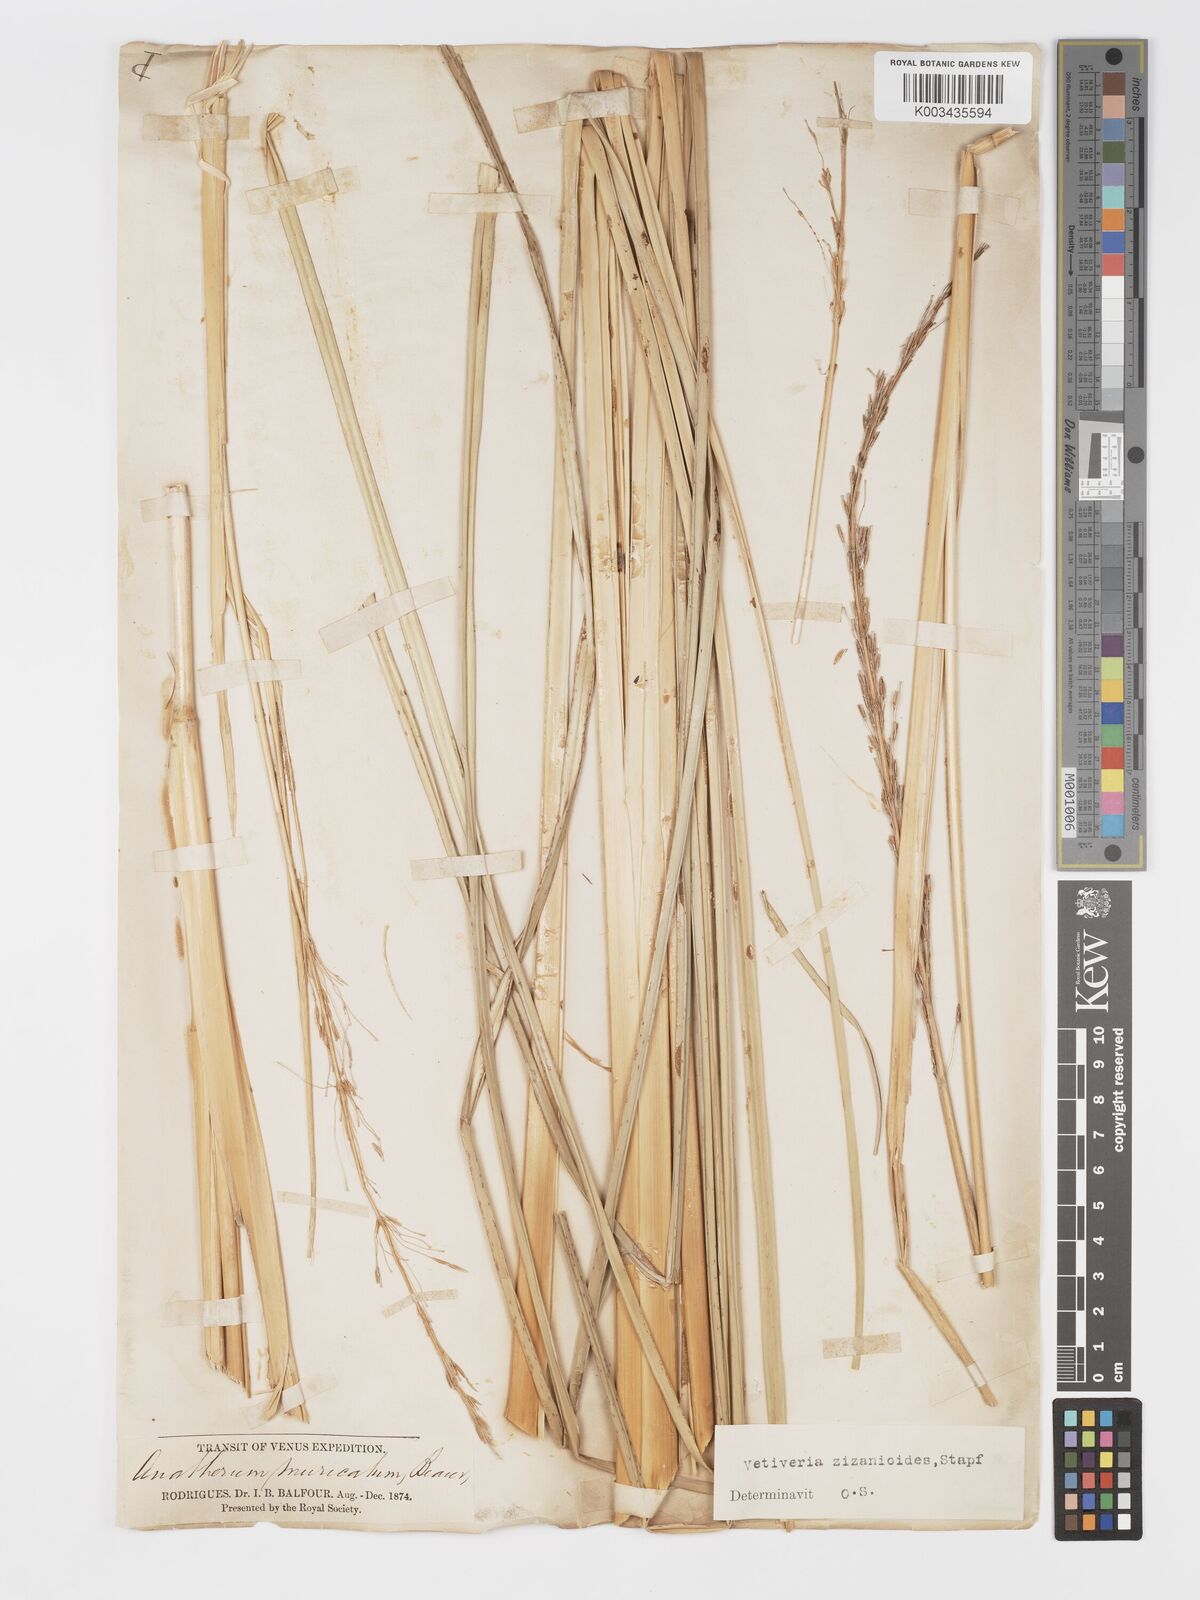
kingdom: Plantae
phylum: Tracheophyta
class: Liliopsida
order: Poales
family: Poaceae
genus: Chrysopogon
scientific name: Chrysopogon zizanioides
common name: False beardgrass
